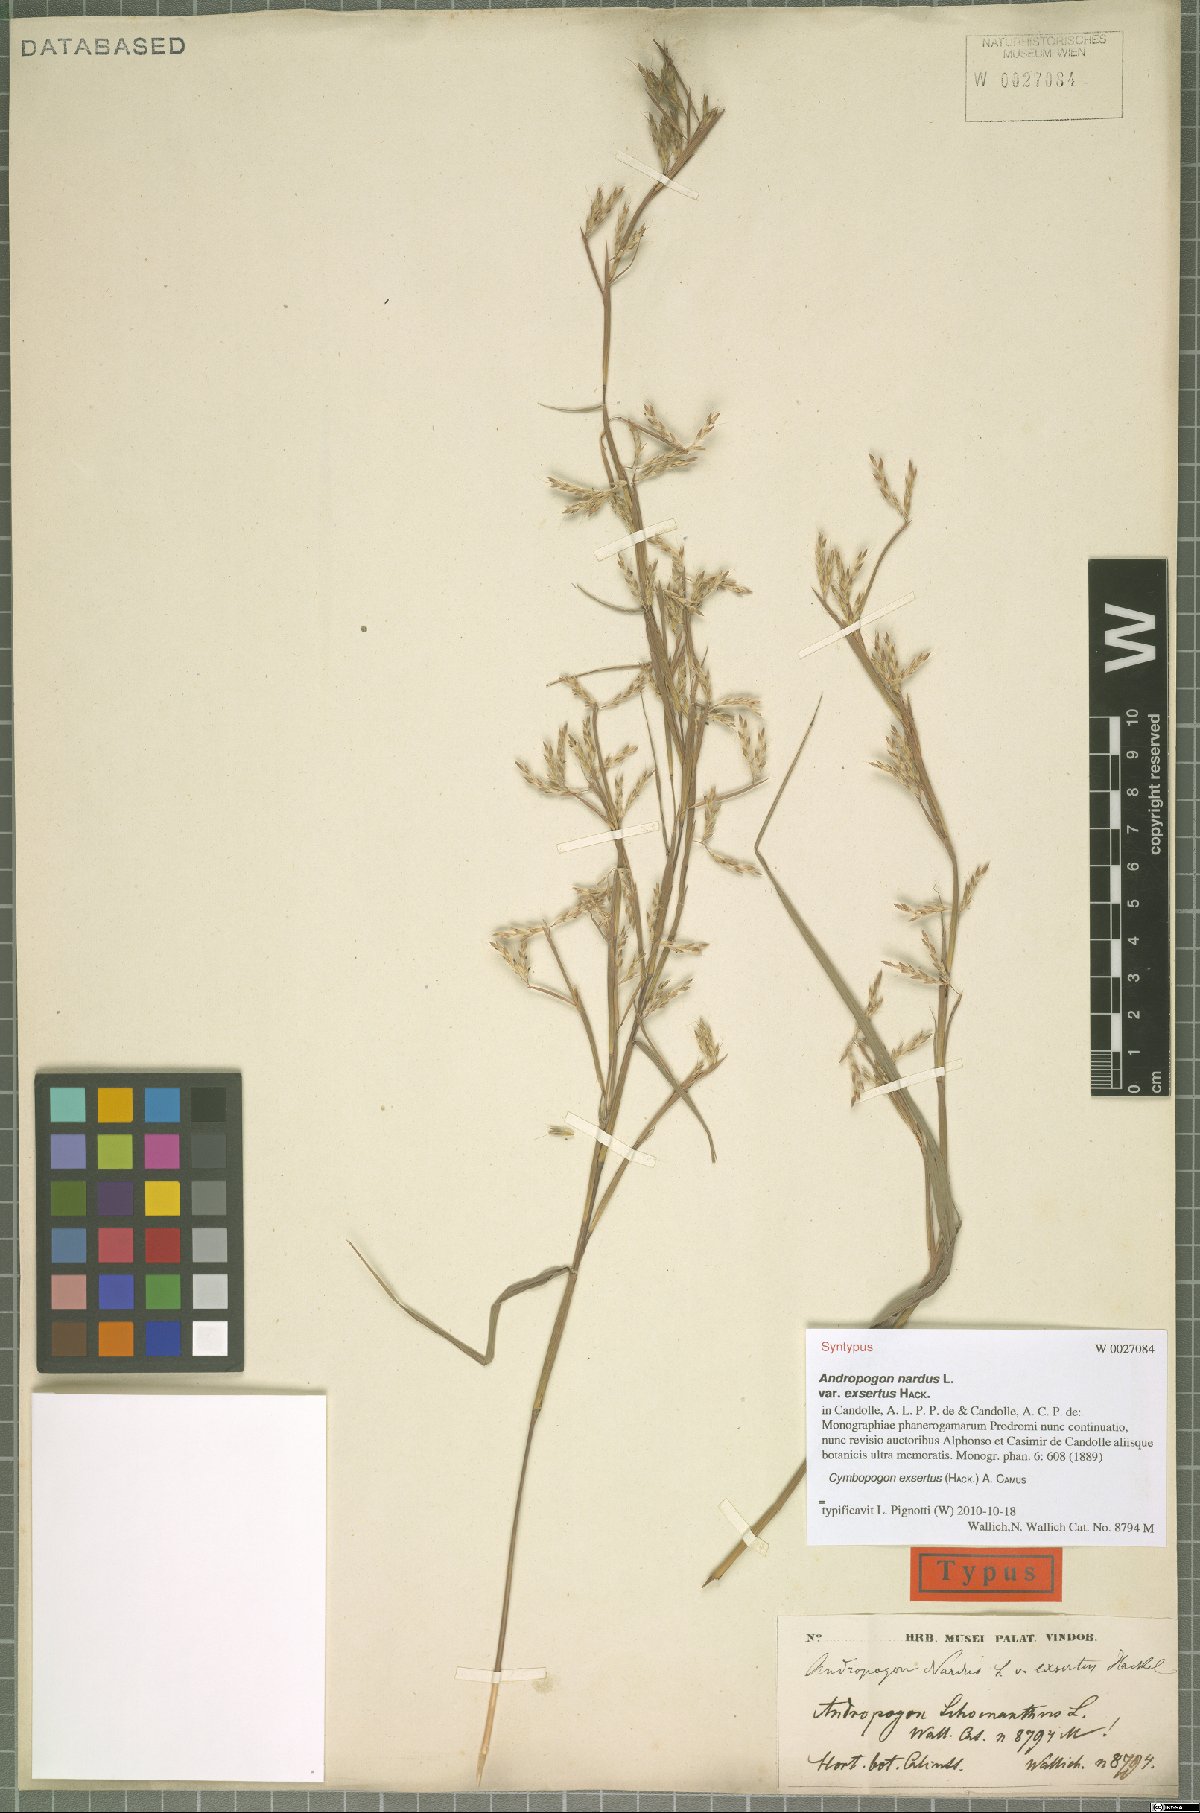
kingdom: Plantae
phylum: Tracheophyta
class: Liliopsida
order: Poales
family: Poaceae
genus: Cymbopogon
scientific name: Cymbopogon exsertus
